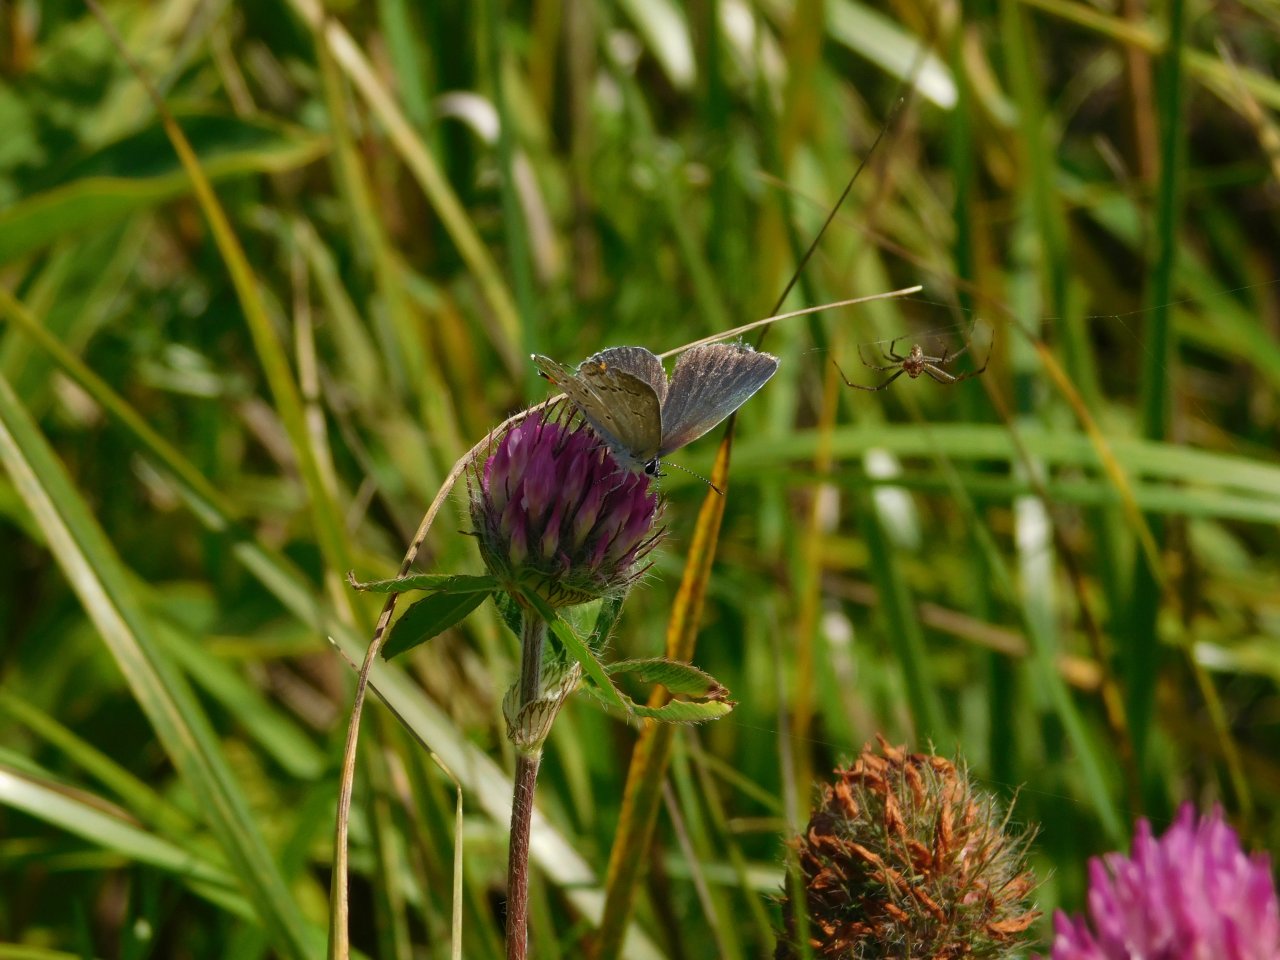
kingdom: Animalia
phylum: Arthropoda
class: Insecta
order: Lepidoptera
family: Lycaenidae
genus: Elkalyce
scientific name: Elkalyce comyntas
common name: Eastern Tailed-Blue
